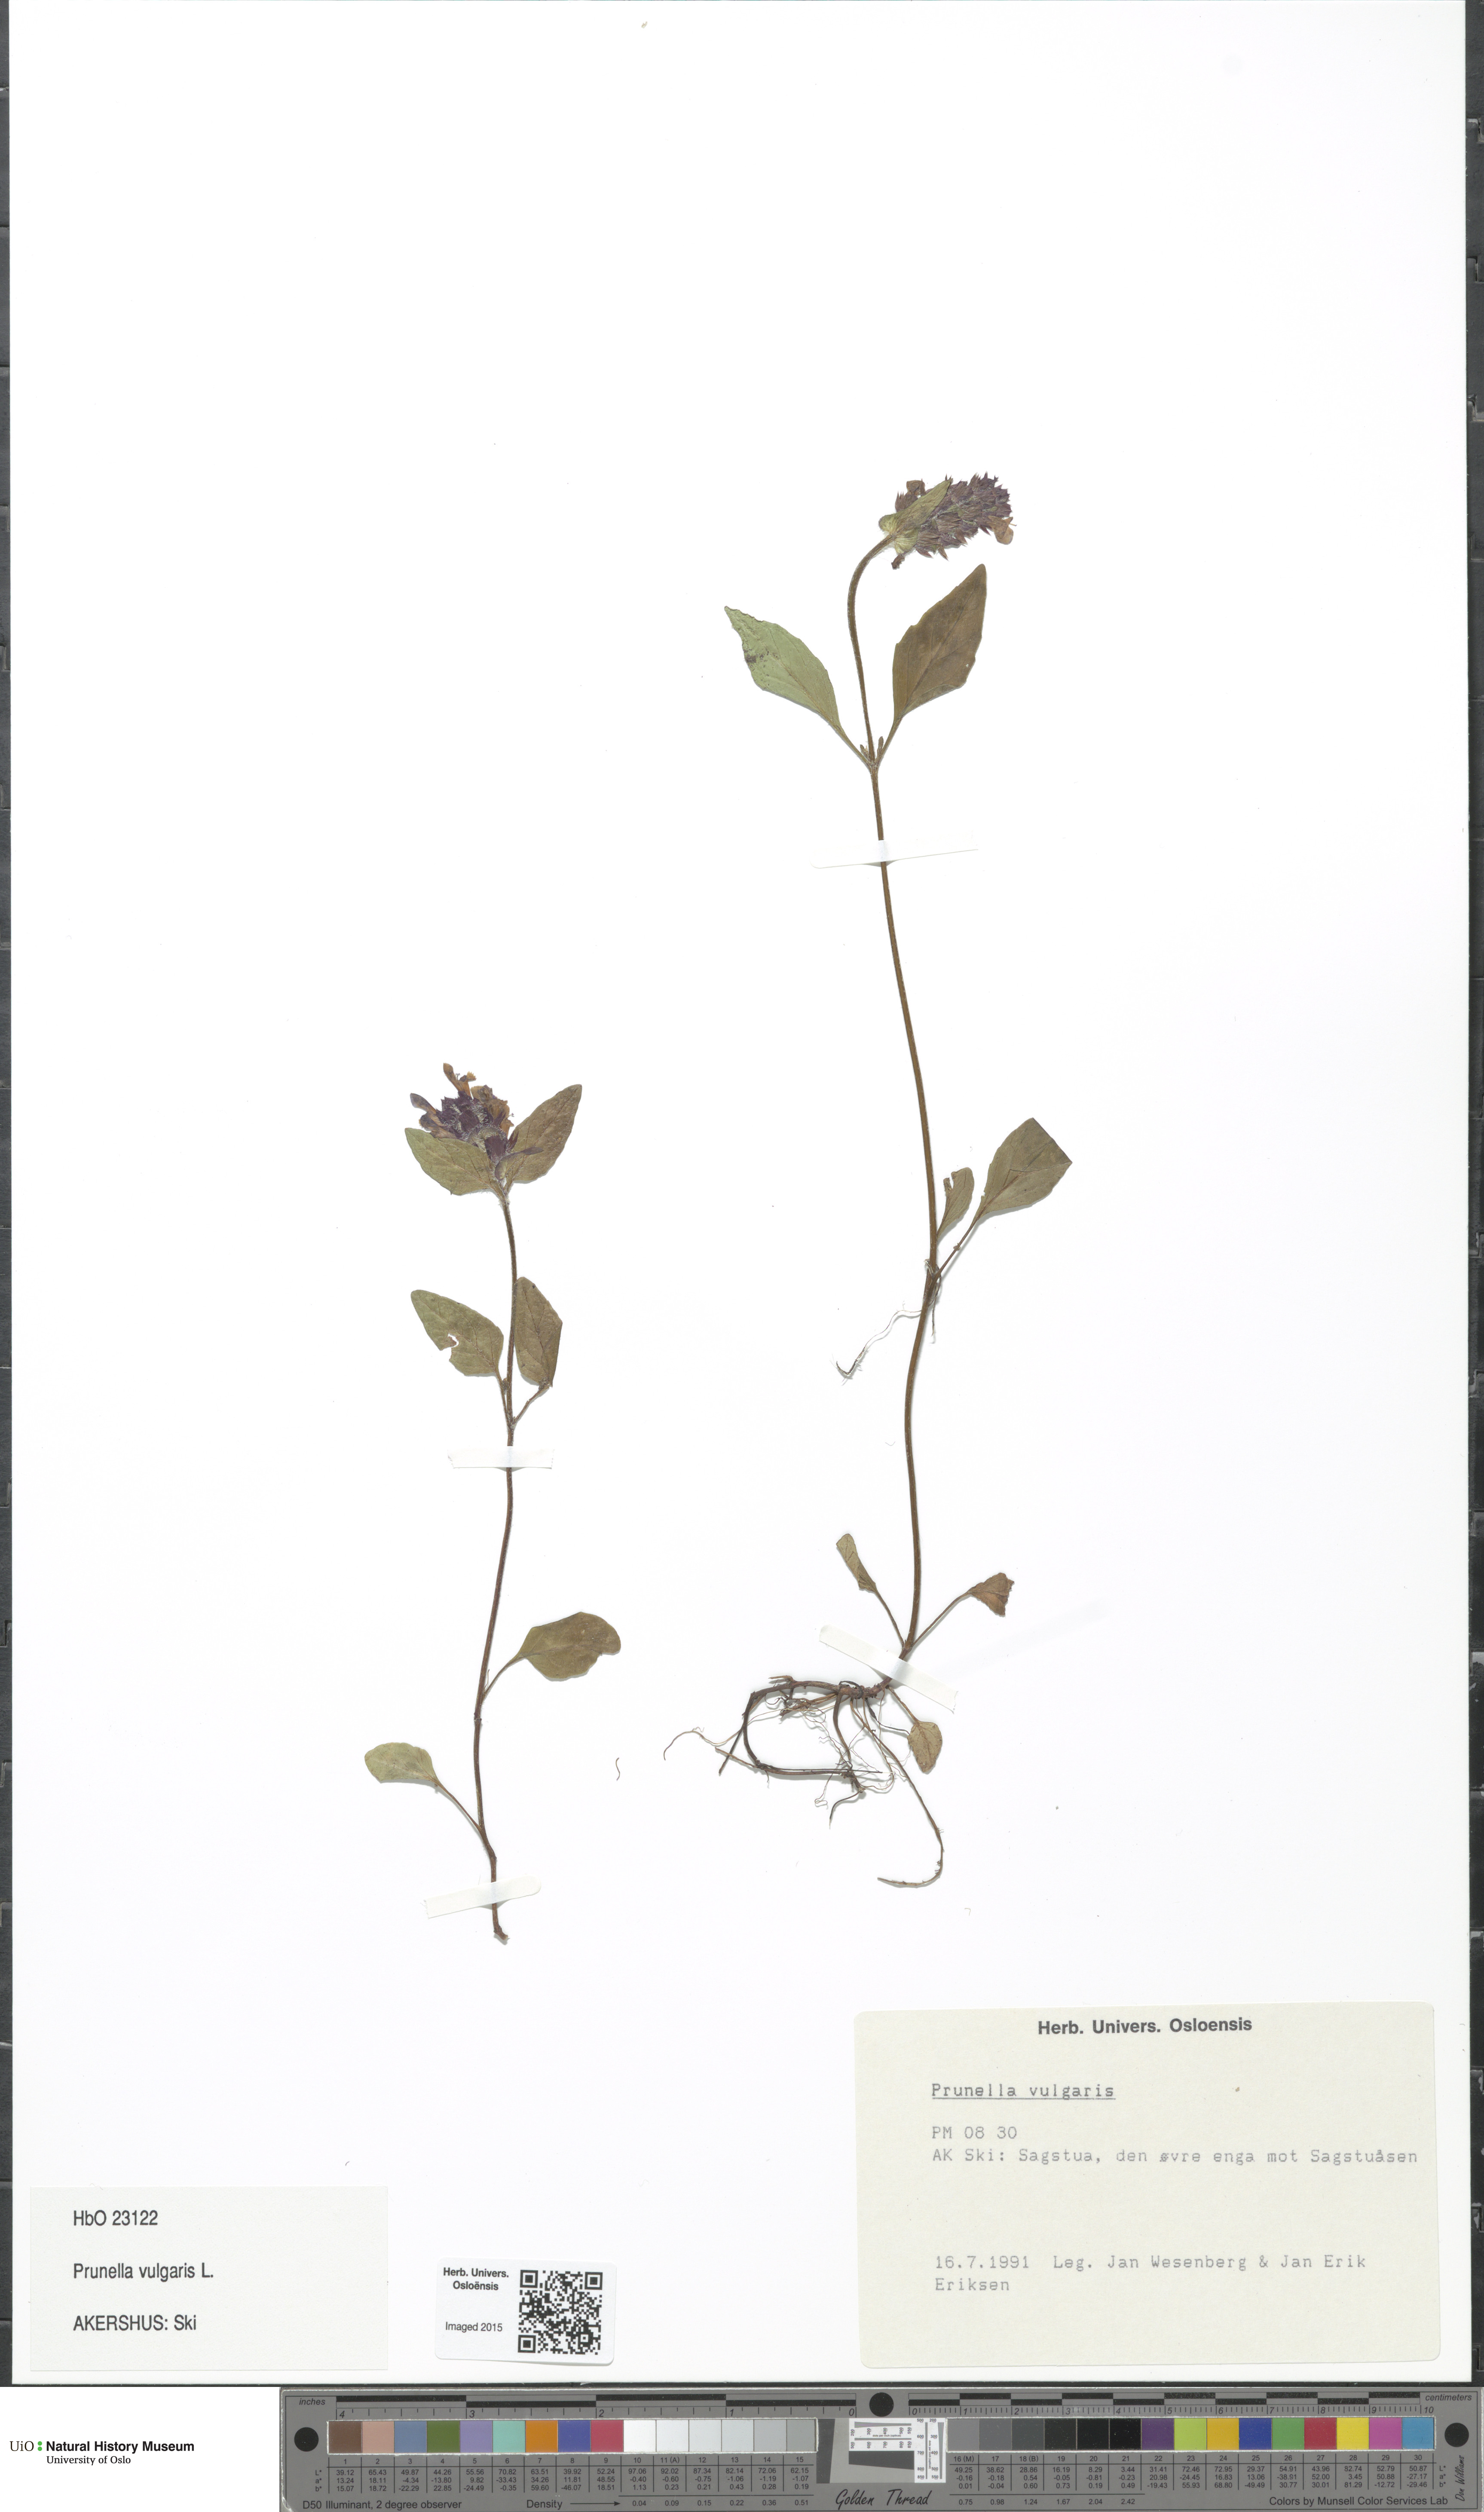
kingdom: Plantae
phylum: Tracheophyta
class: Magnoliopsida
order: Lamiales
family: Lamiaceae
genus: Prunella
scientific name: Prunella vulgaris
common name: Heal-all
